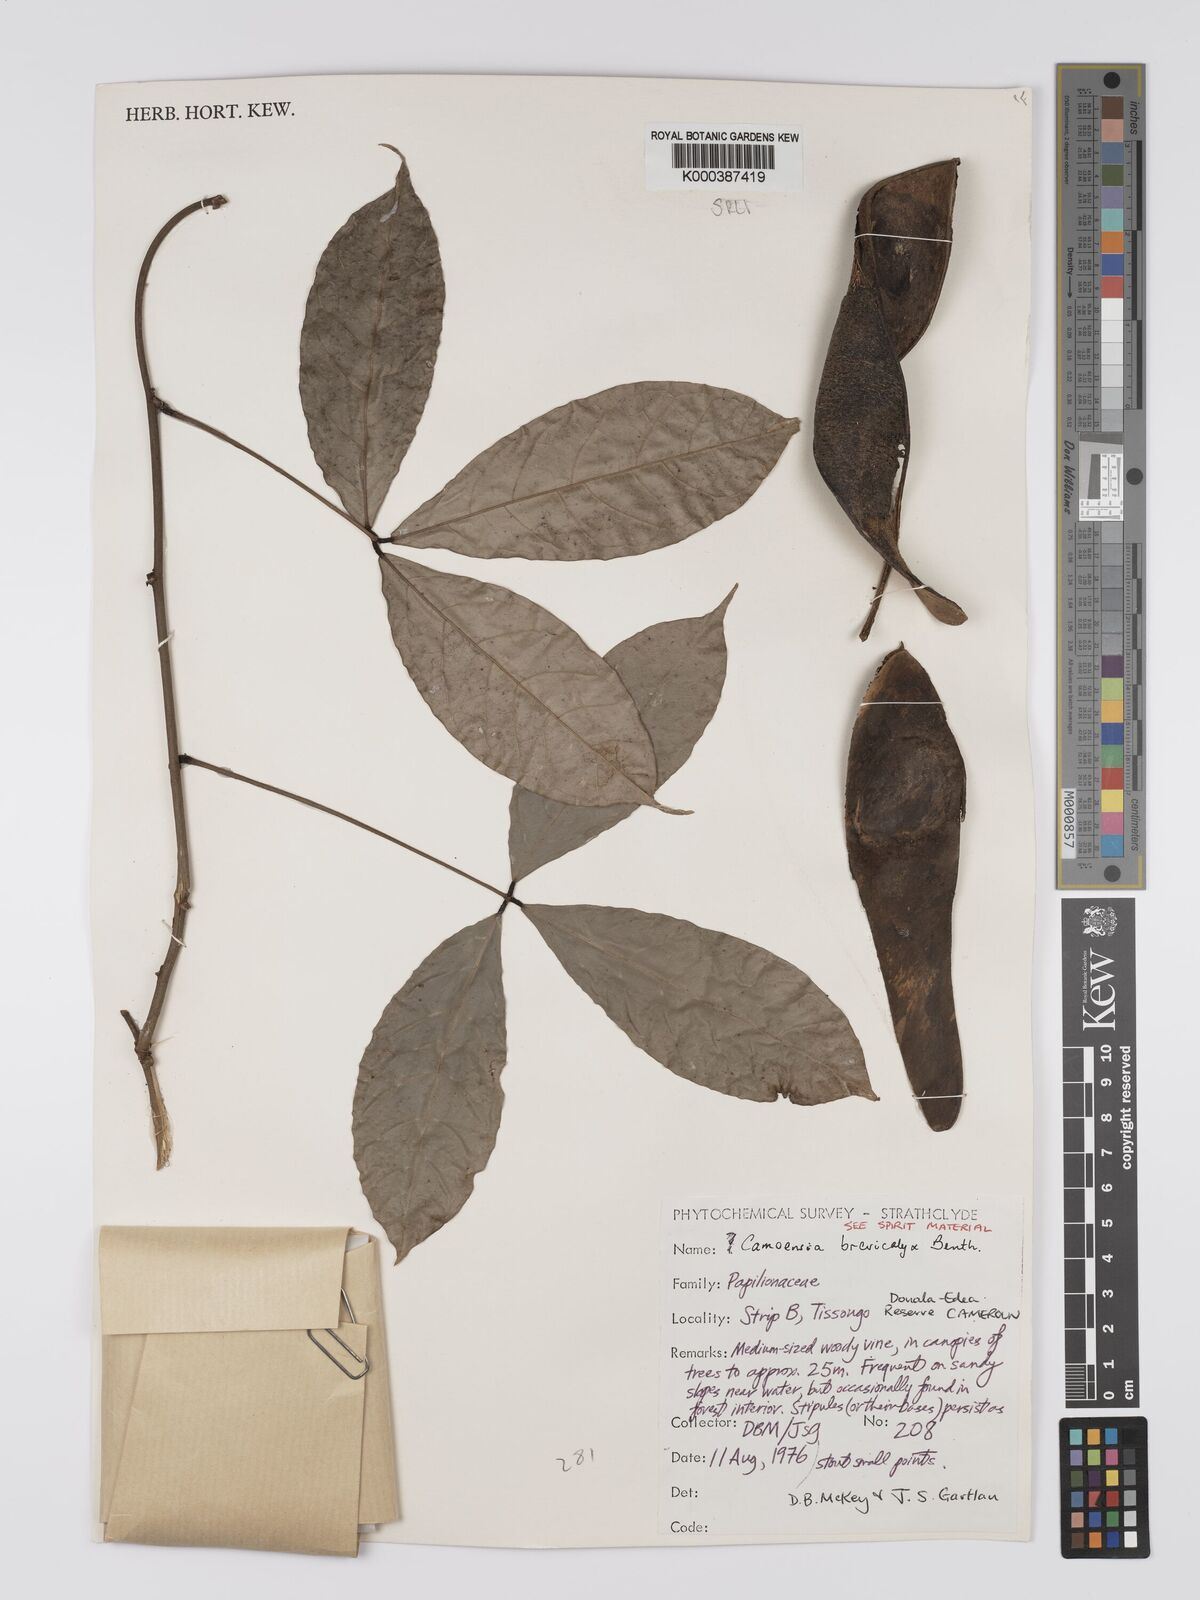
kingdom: Plantae
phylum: Tracheophyta
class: Magnoliopsida
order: Fabales
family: Fabaceae
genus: Camoensia
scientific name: Camoensia brevicalyx
